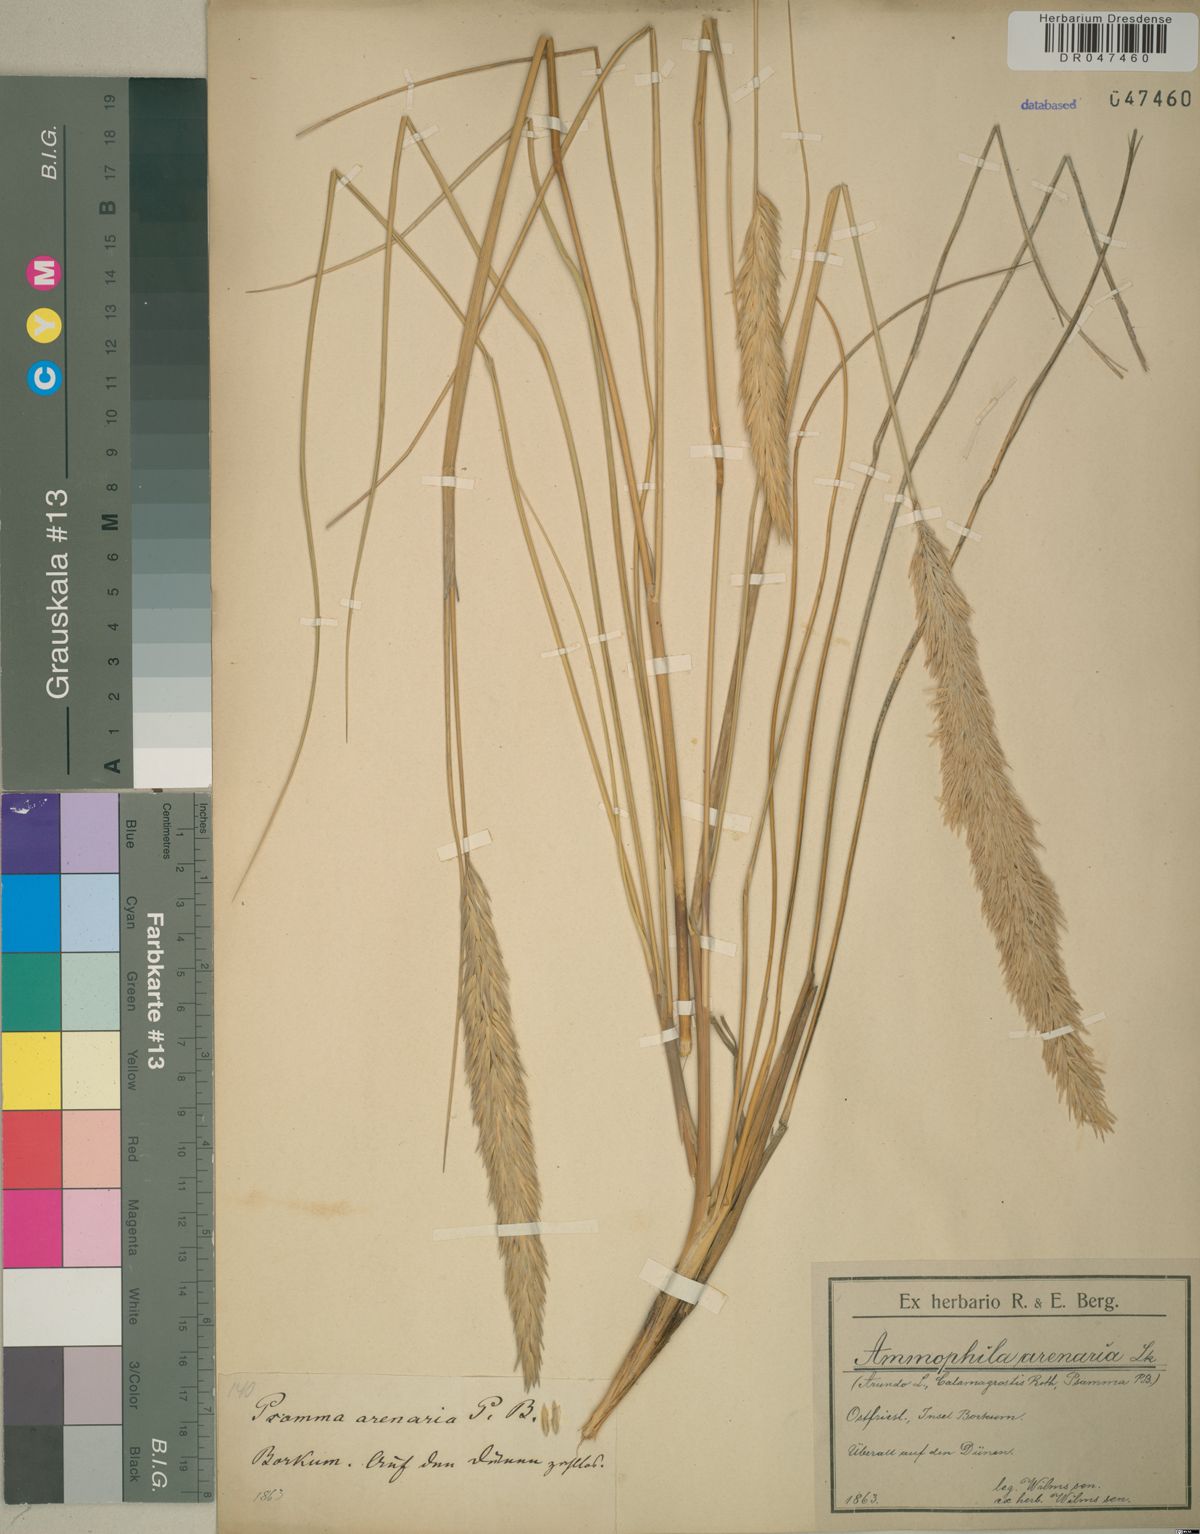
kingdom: Plantae
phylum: Tracheophyta
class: Liliopsida
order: Poales
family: Poaceae
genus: Calamagrostis
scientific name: Calamagrostis arenaria
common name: European beachgrass
